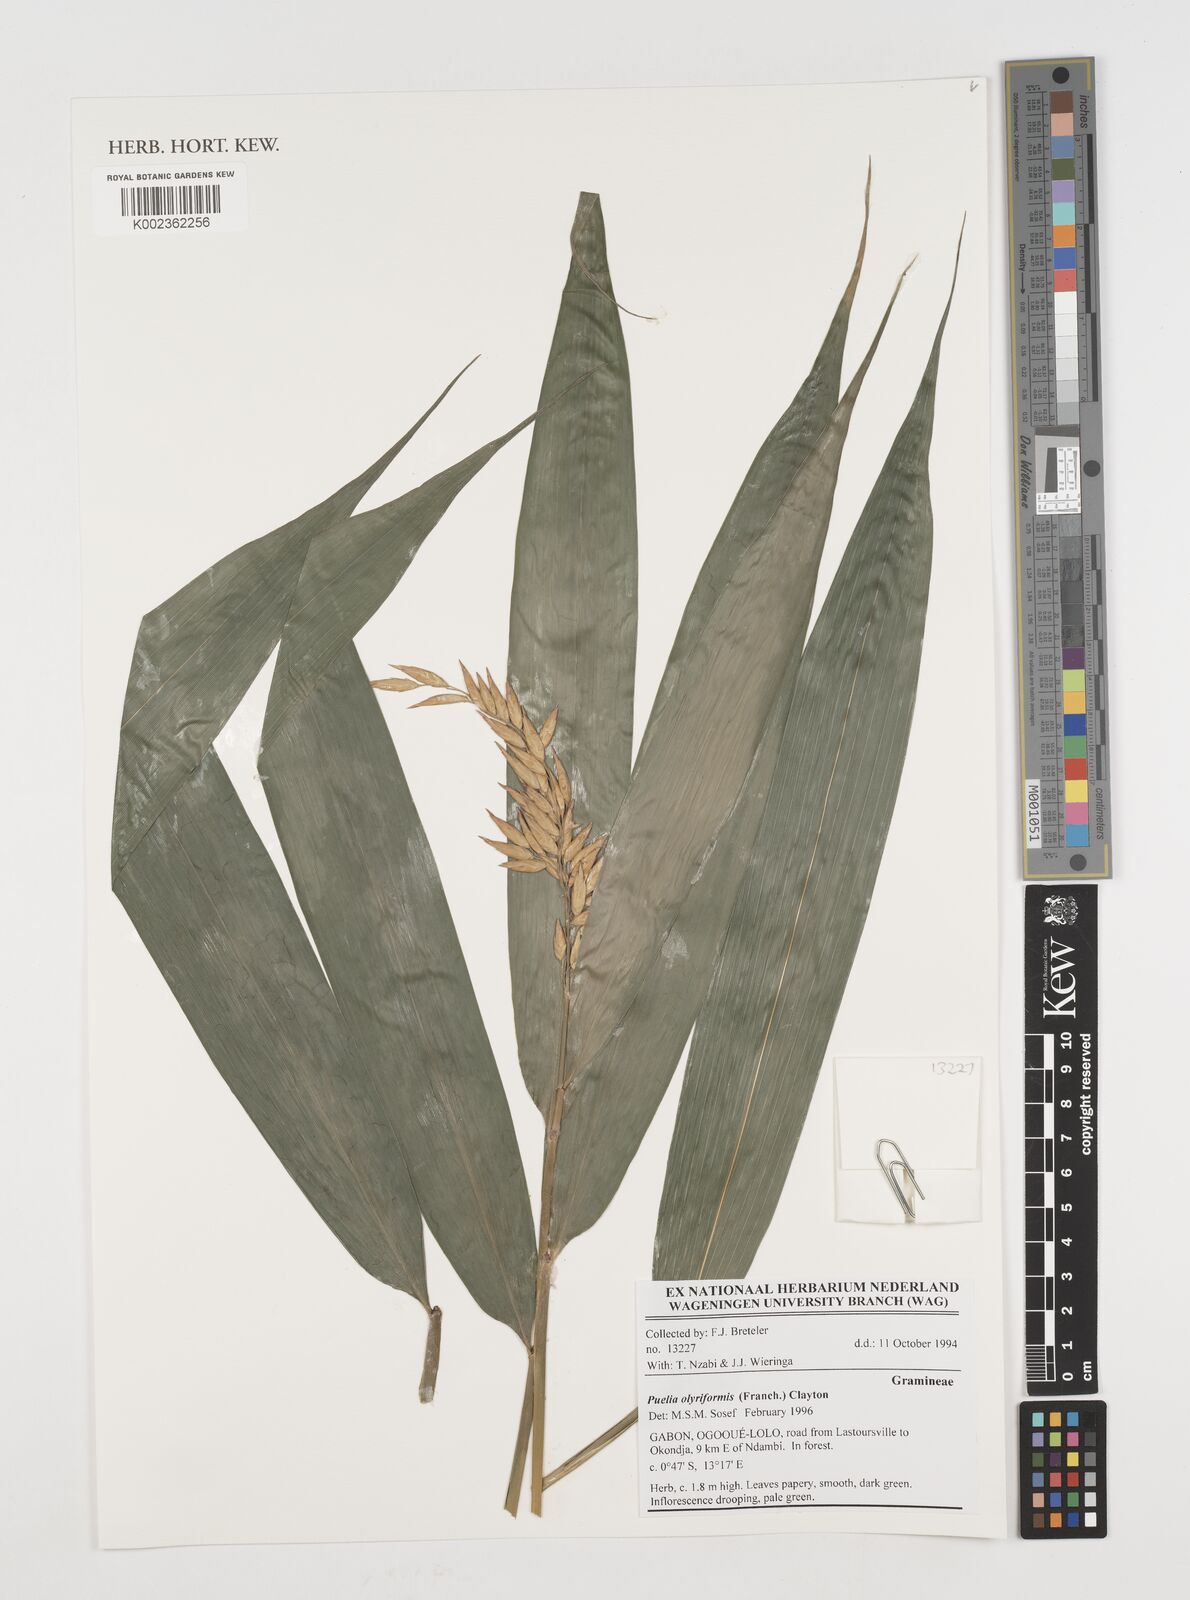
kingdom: Plantae
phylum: Tracheophyta
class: Liliopsida
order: Poales
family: Poaceae
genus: Puelia
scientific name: Puelia olyriformis
